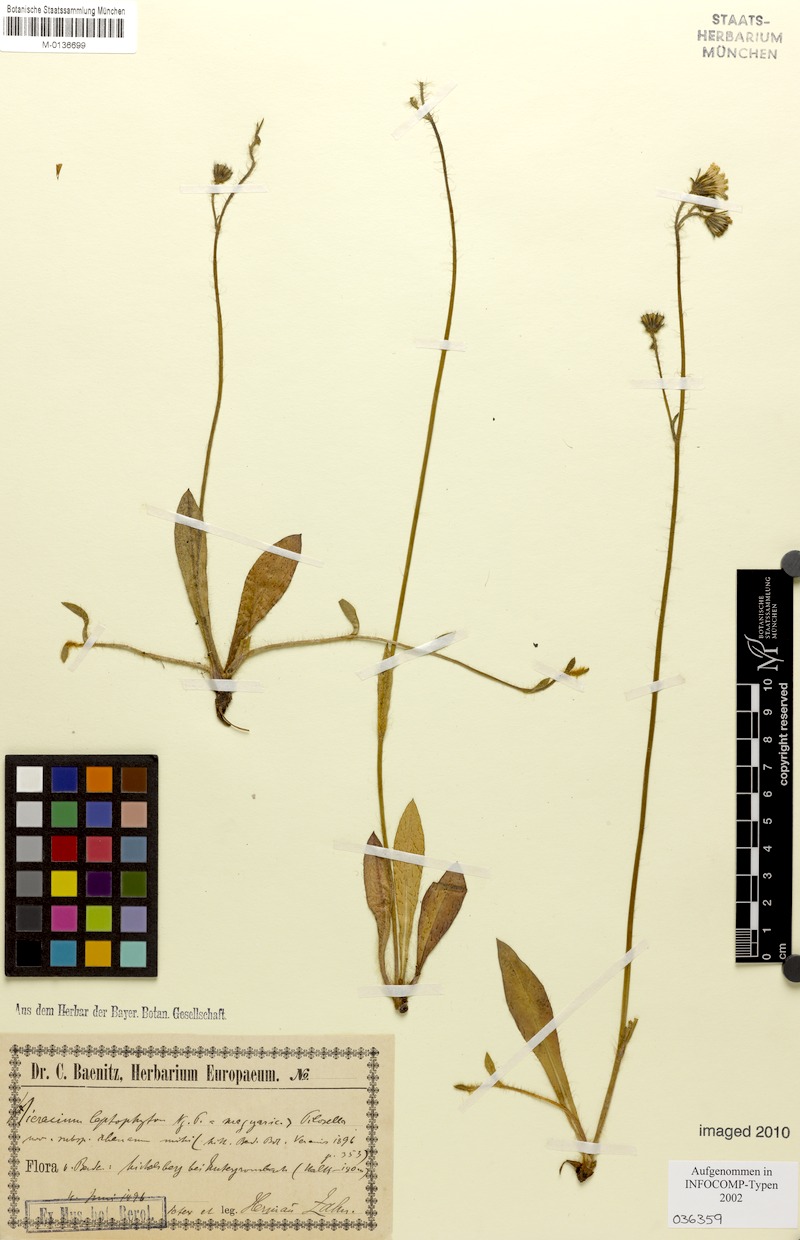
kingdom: Plantae
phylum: Tracheophyta
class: Magnoliopsida
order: Asterales
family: Asteraceae
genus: Pilosella
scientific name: Pilosella leptophyton
